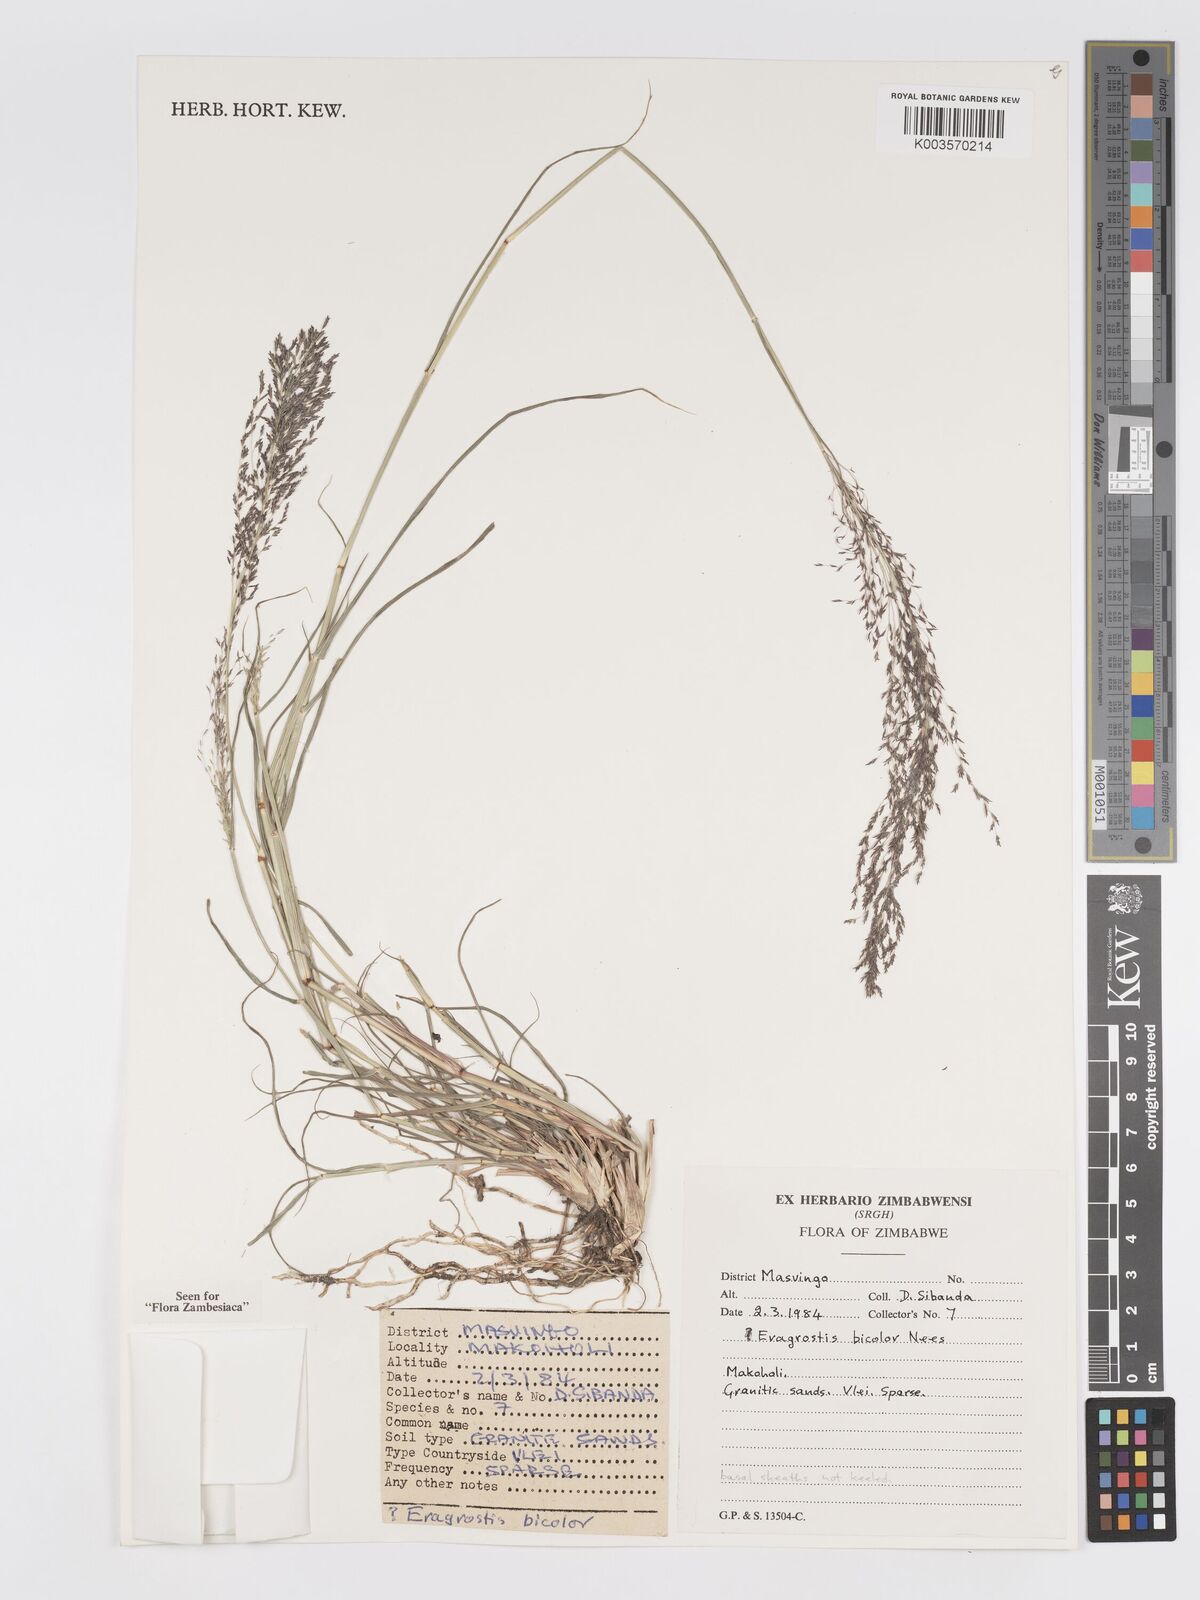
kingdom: Plantae
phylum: Tracheophyta
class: Liliopsida
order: Poales
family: Poaceae
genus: Eragrostis
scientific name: Eragrostis bicolor
